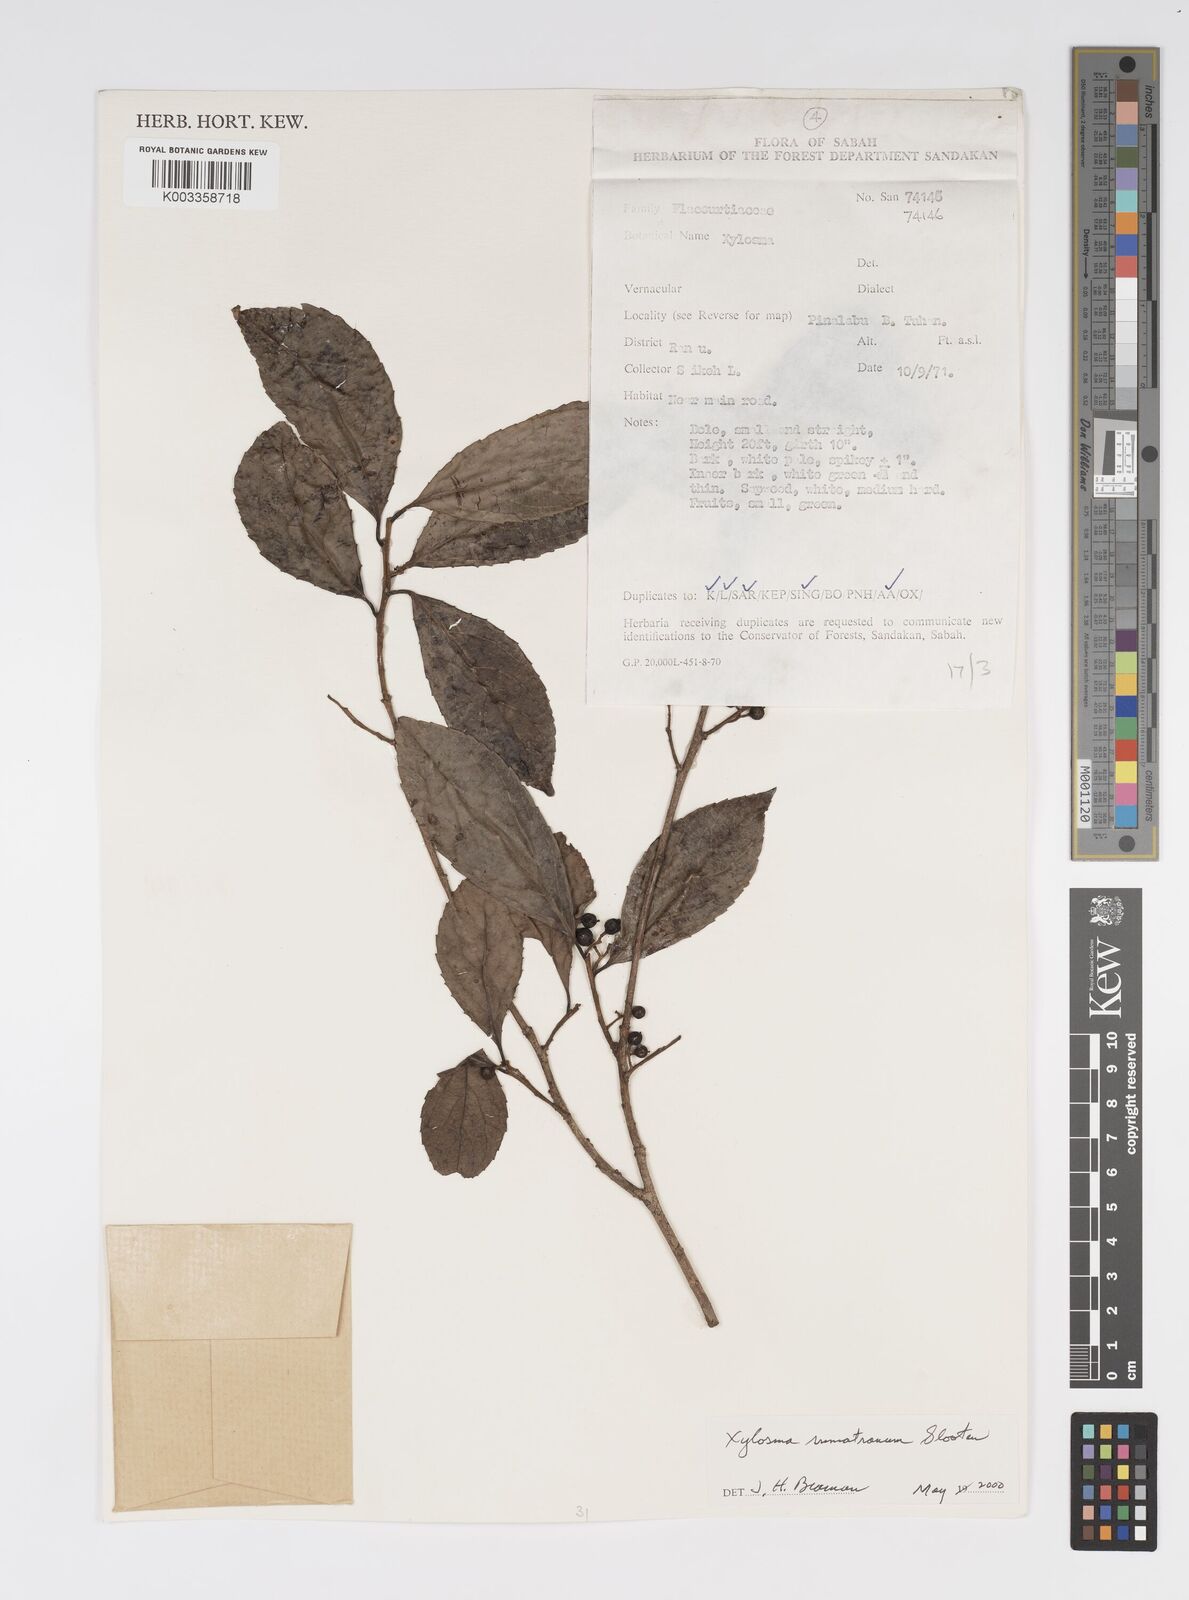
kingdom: Plantae
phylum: Tracheophyta
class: Magnoliopsida
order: Malpighiales
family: Salicaceae
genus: Xylosma
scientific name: Xylosma sumatrana
